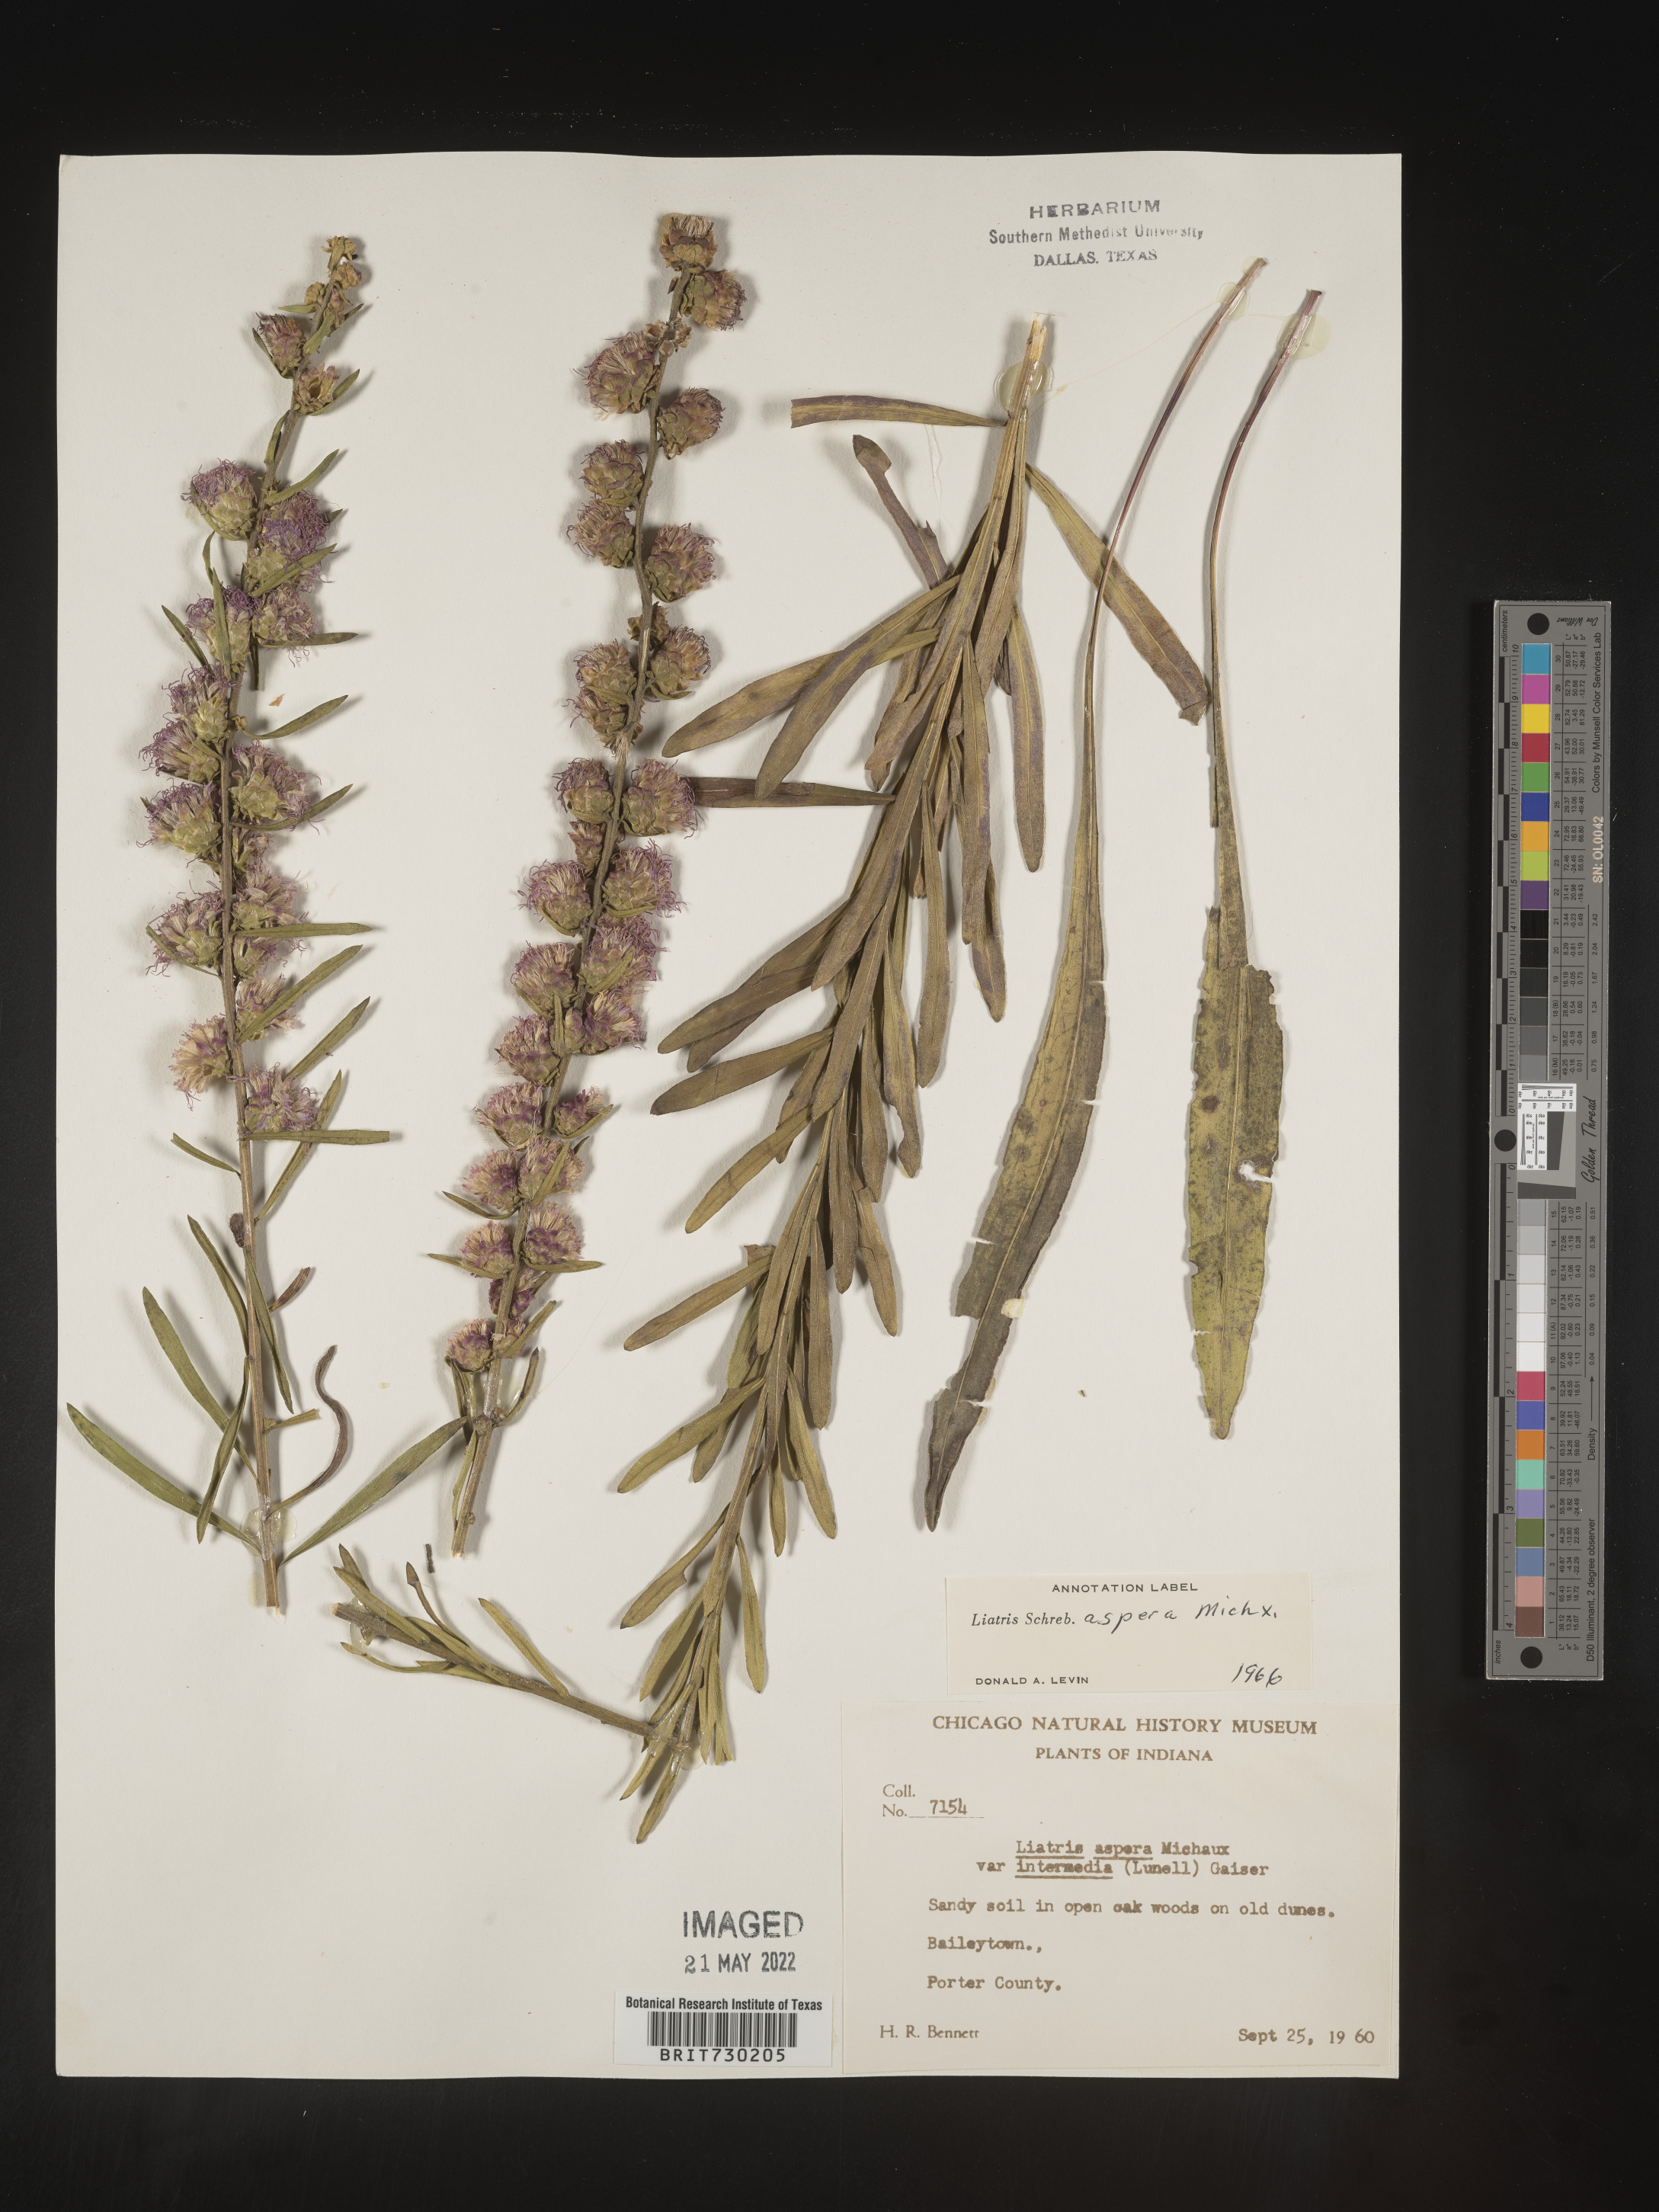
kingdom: Plantae
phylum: Tracheophyta
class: Magnoliopsida
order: Asterales
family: Asteraceae
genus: Liatris
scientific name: Liatris aspera
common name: Lacerate blazing-star
